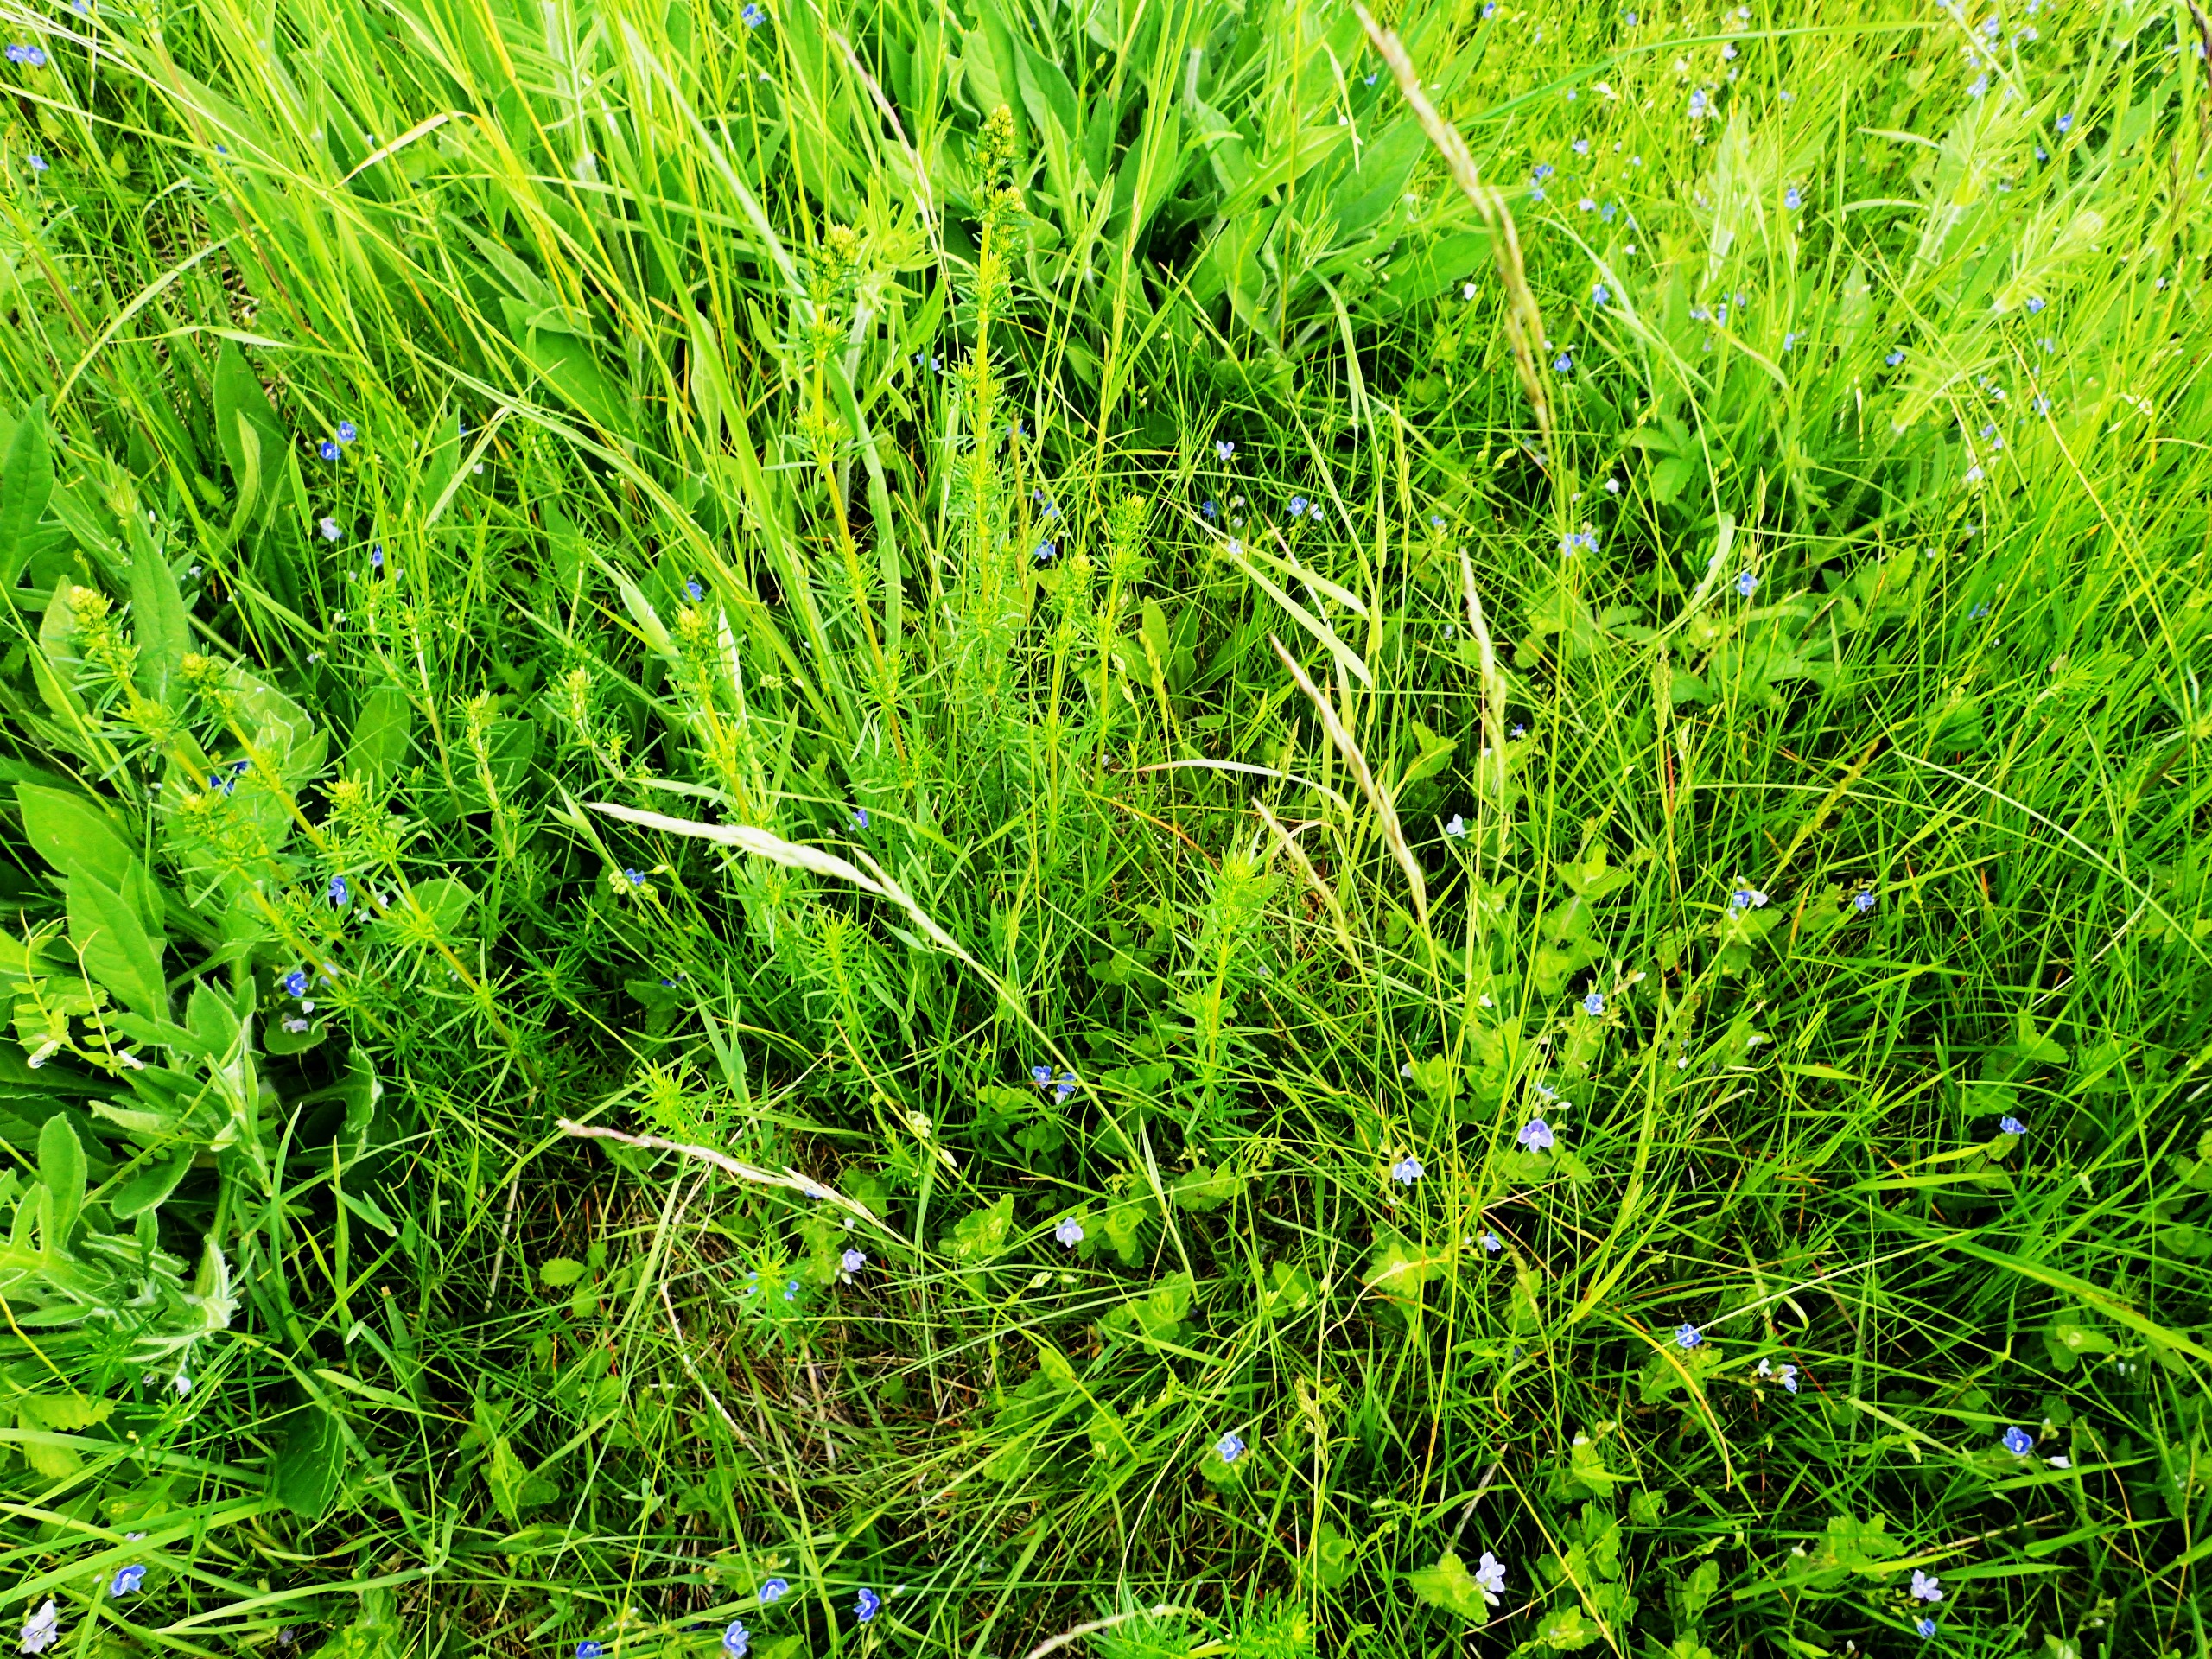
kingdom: Plantae
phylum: Tracheophyta
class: Magnoliopsida
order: Gentianales
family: Rubiaceae
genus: Galium
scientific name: Galium verum
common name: Gul snerre
